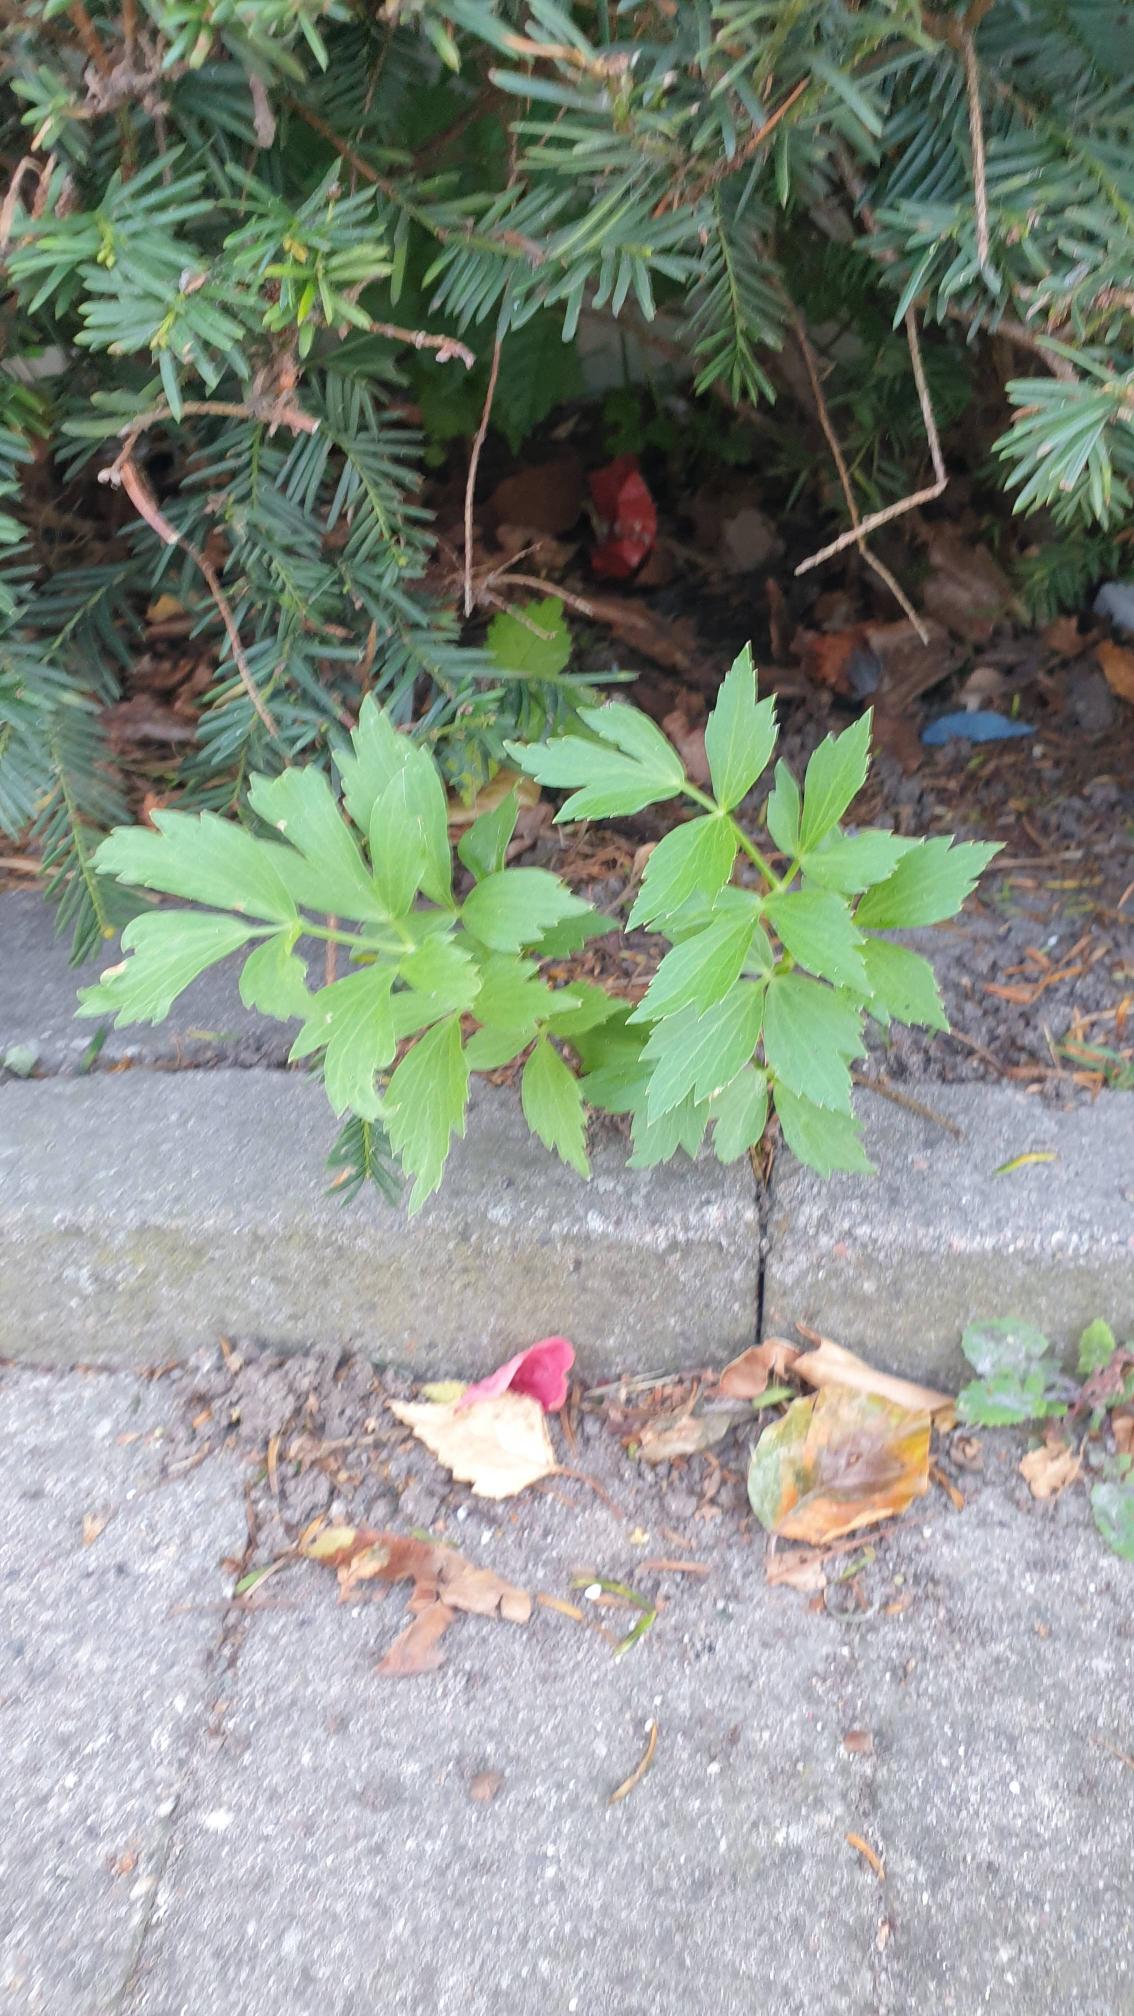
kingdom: Plantae
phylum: Tracheophyta
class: Magnoliopsida
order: Apiales
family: Apiaceae
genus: Levisticum
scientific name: Levisticum officinale
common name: Løvstikke
